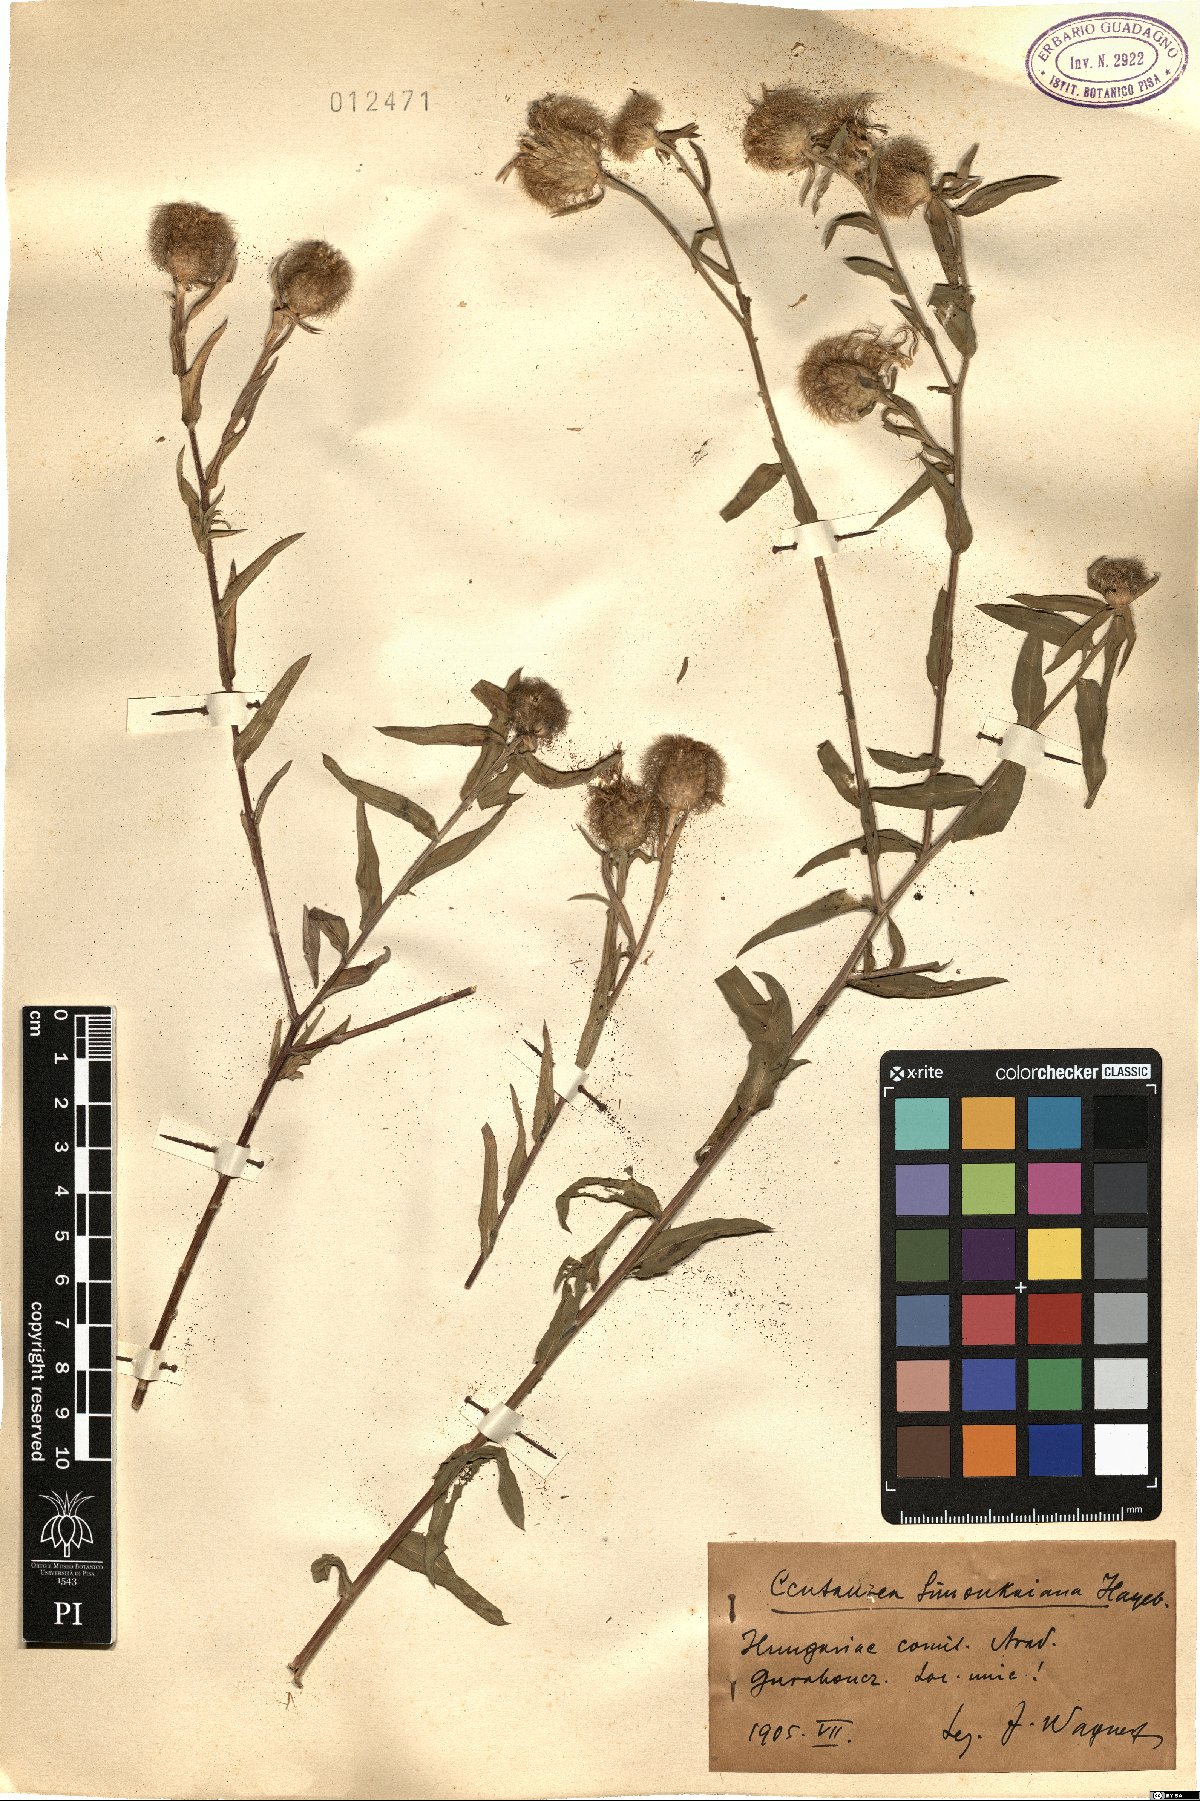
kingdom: Plantae
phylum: Tracheophyta
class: Magnoliopsida
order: Asterales
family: Asteraceae
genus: Centaurea
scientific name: Centaurea simonkaiana
